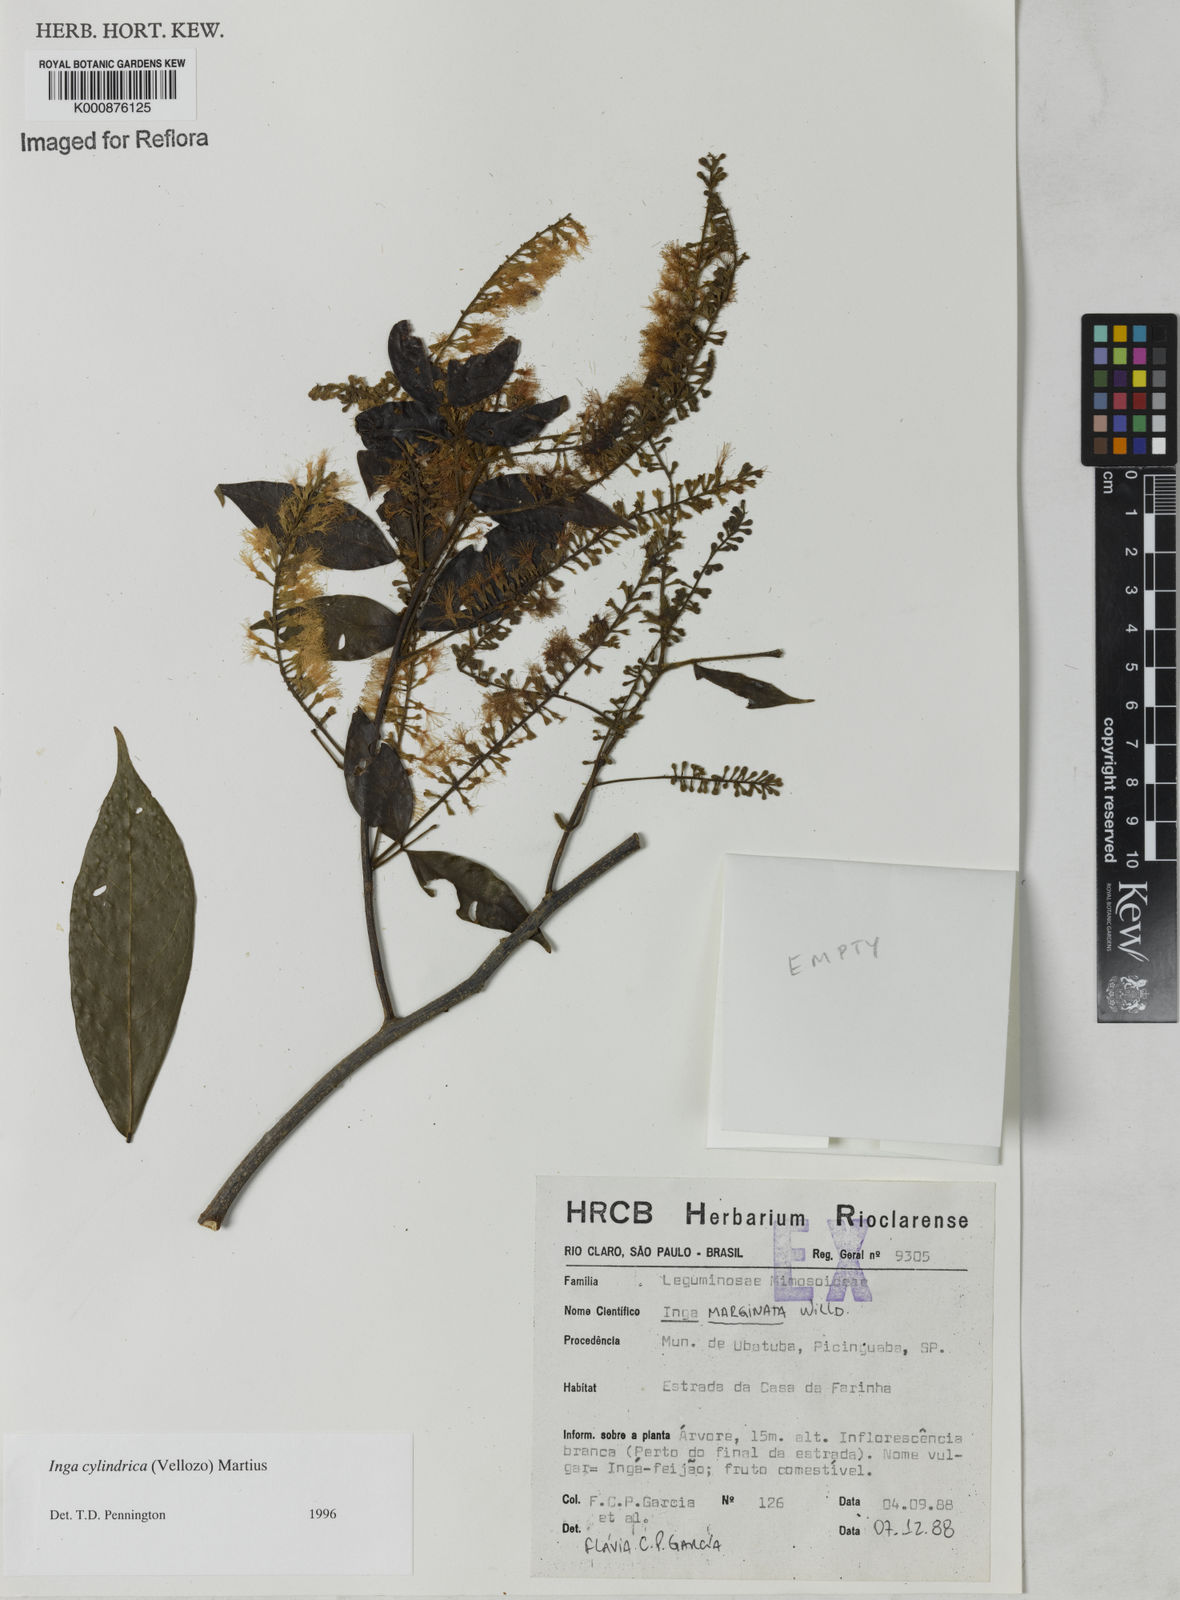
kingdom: Plantae
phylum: Tracheophyta
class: Magnoliopsida
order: Fabales
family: Fabaceae
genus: Inga
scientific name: Inga cylindrica
